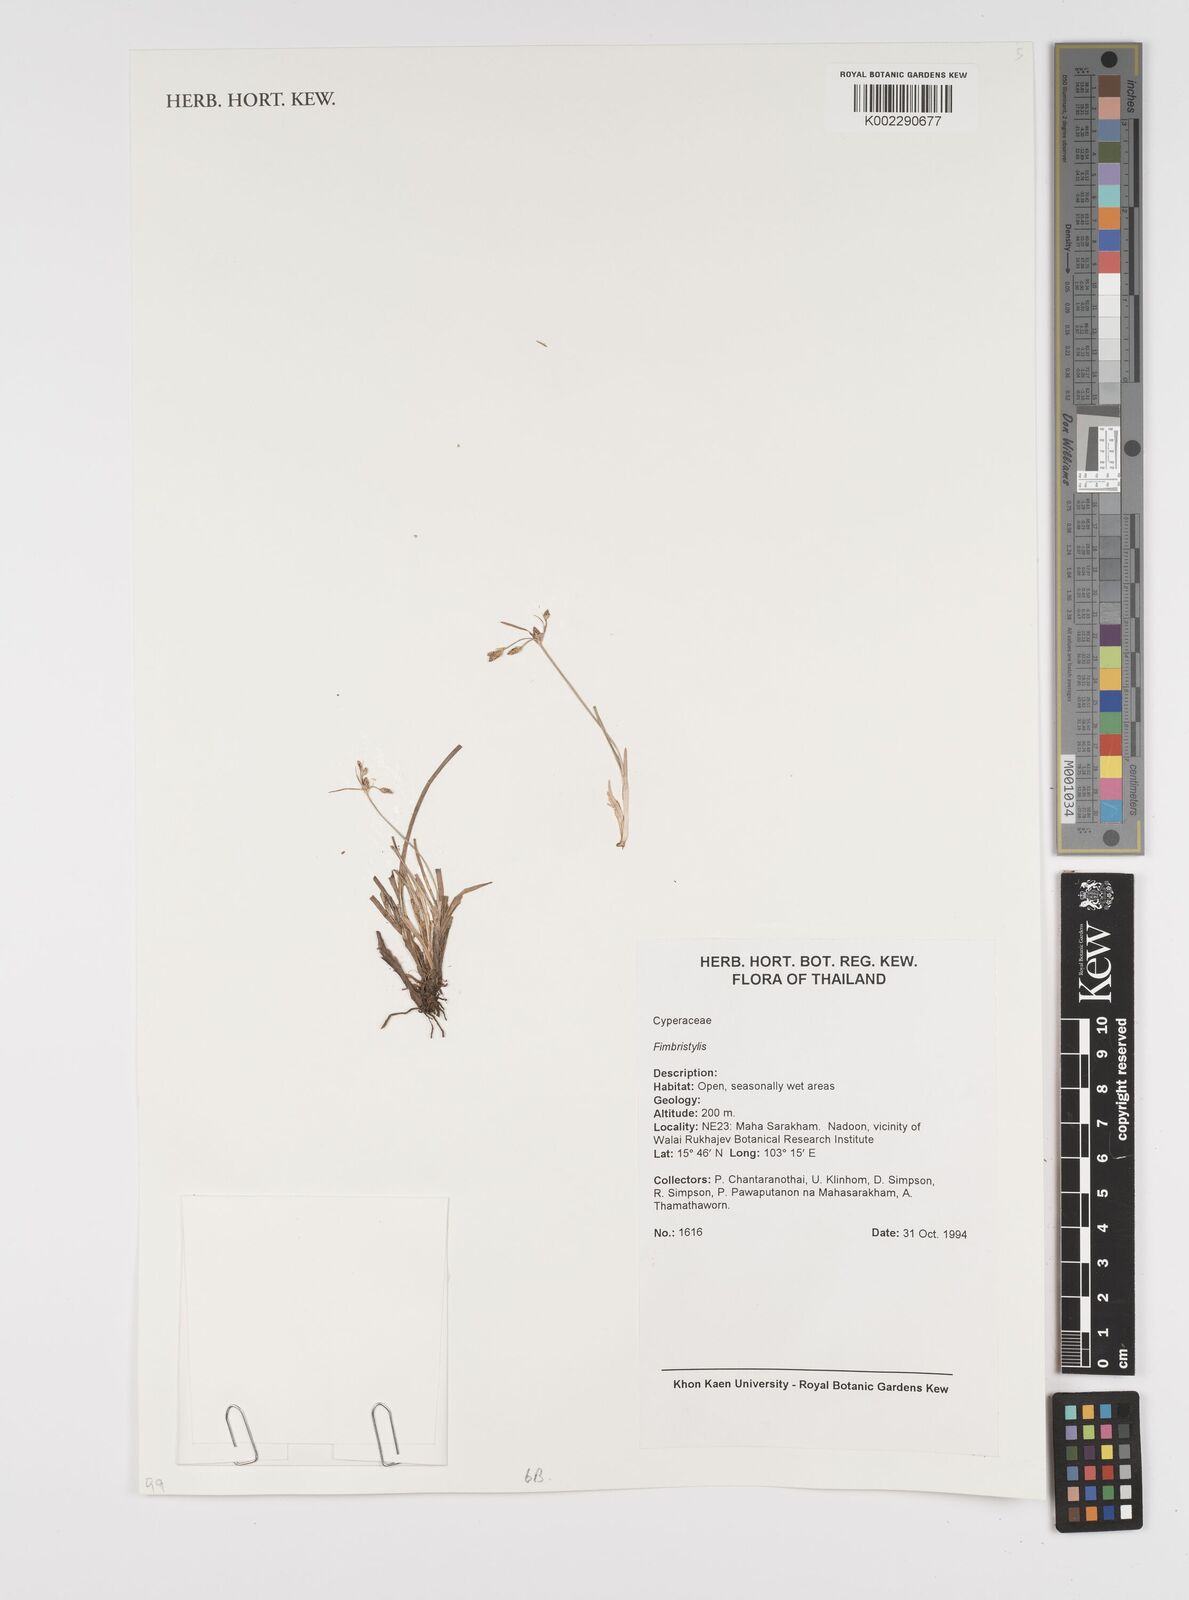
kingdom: Plantae
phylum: Tracheophyta
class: Liliopsida
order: Poales
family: Cyperaceae
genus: Fimbristylis
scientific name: Fimbristylis
